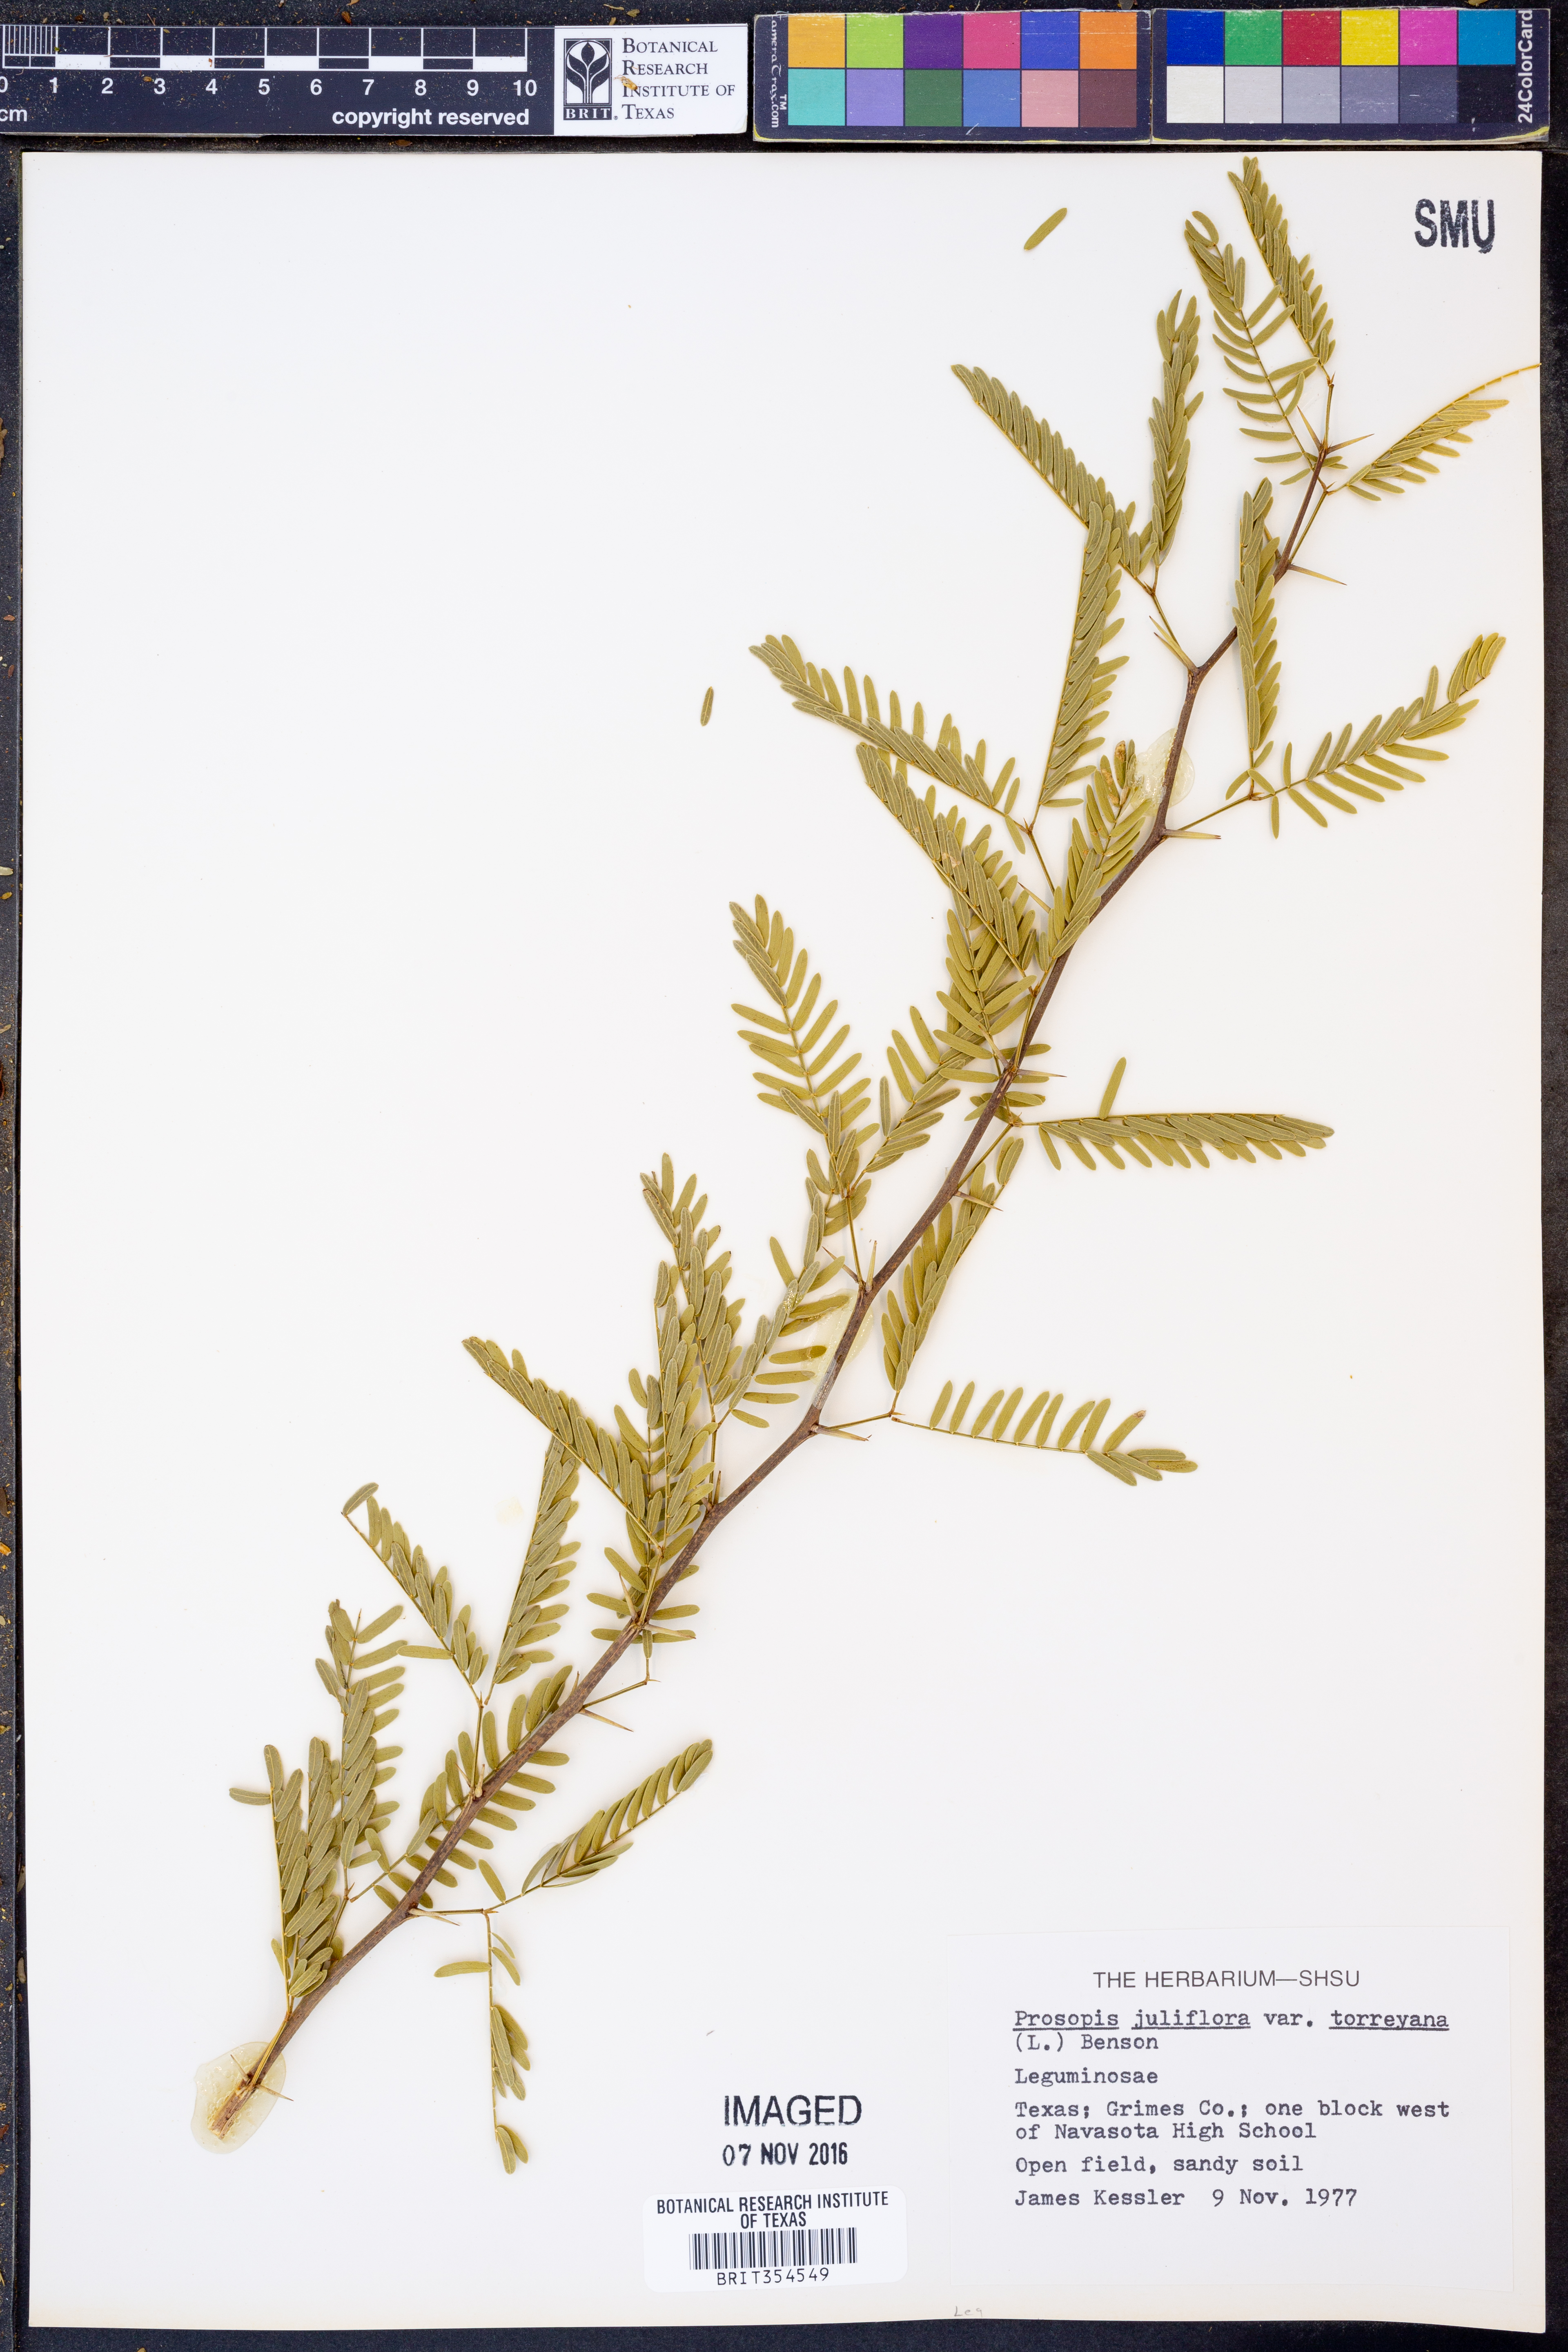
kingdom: Plantae
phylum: Tracheophyta
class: Magnoliopsida
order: Fabales
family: Fabaceae
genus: Prosopis
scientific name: Prosopis glandulosa
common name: Honey mesquite
